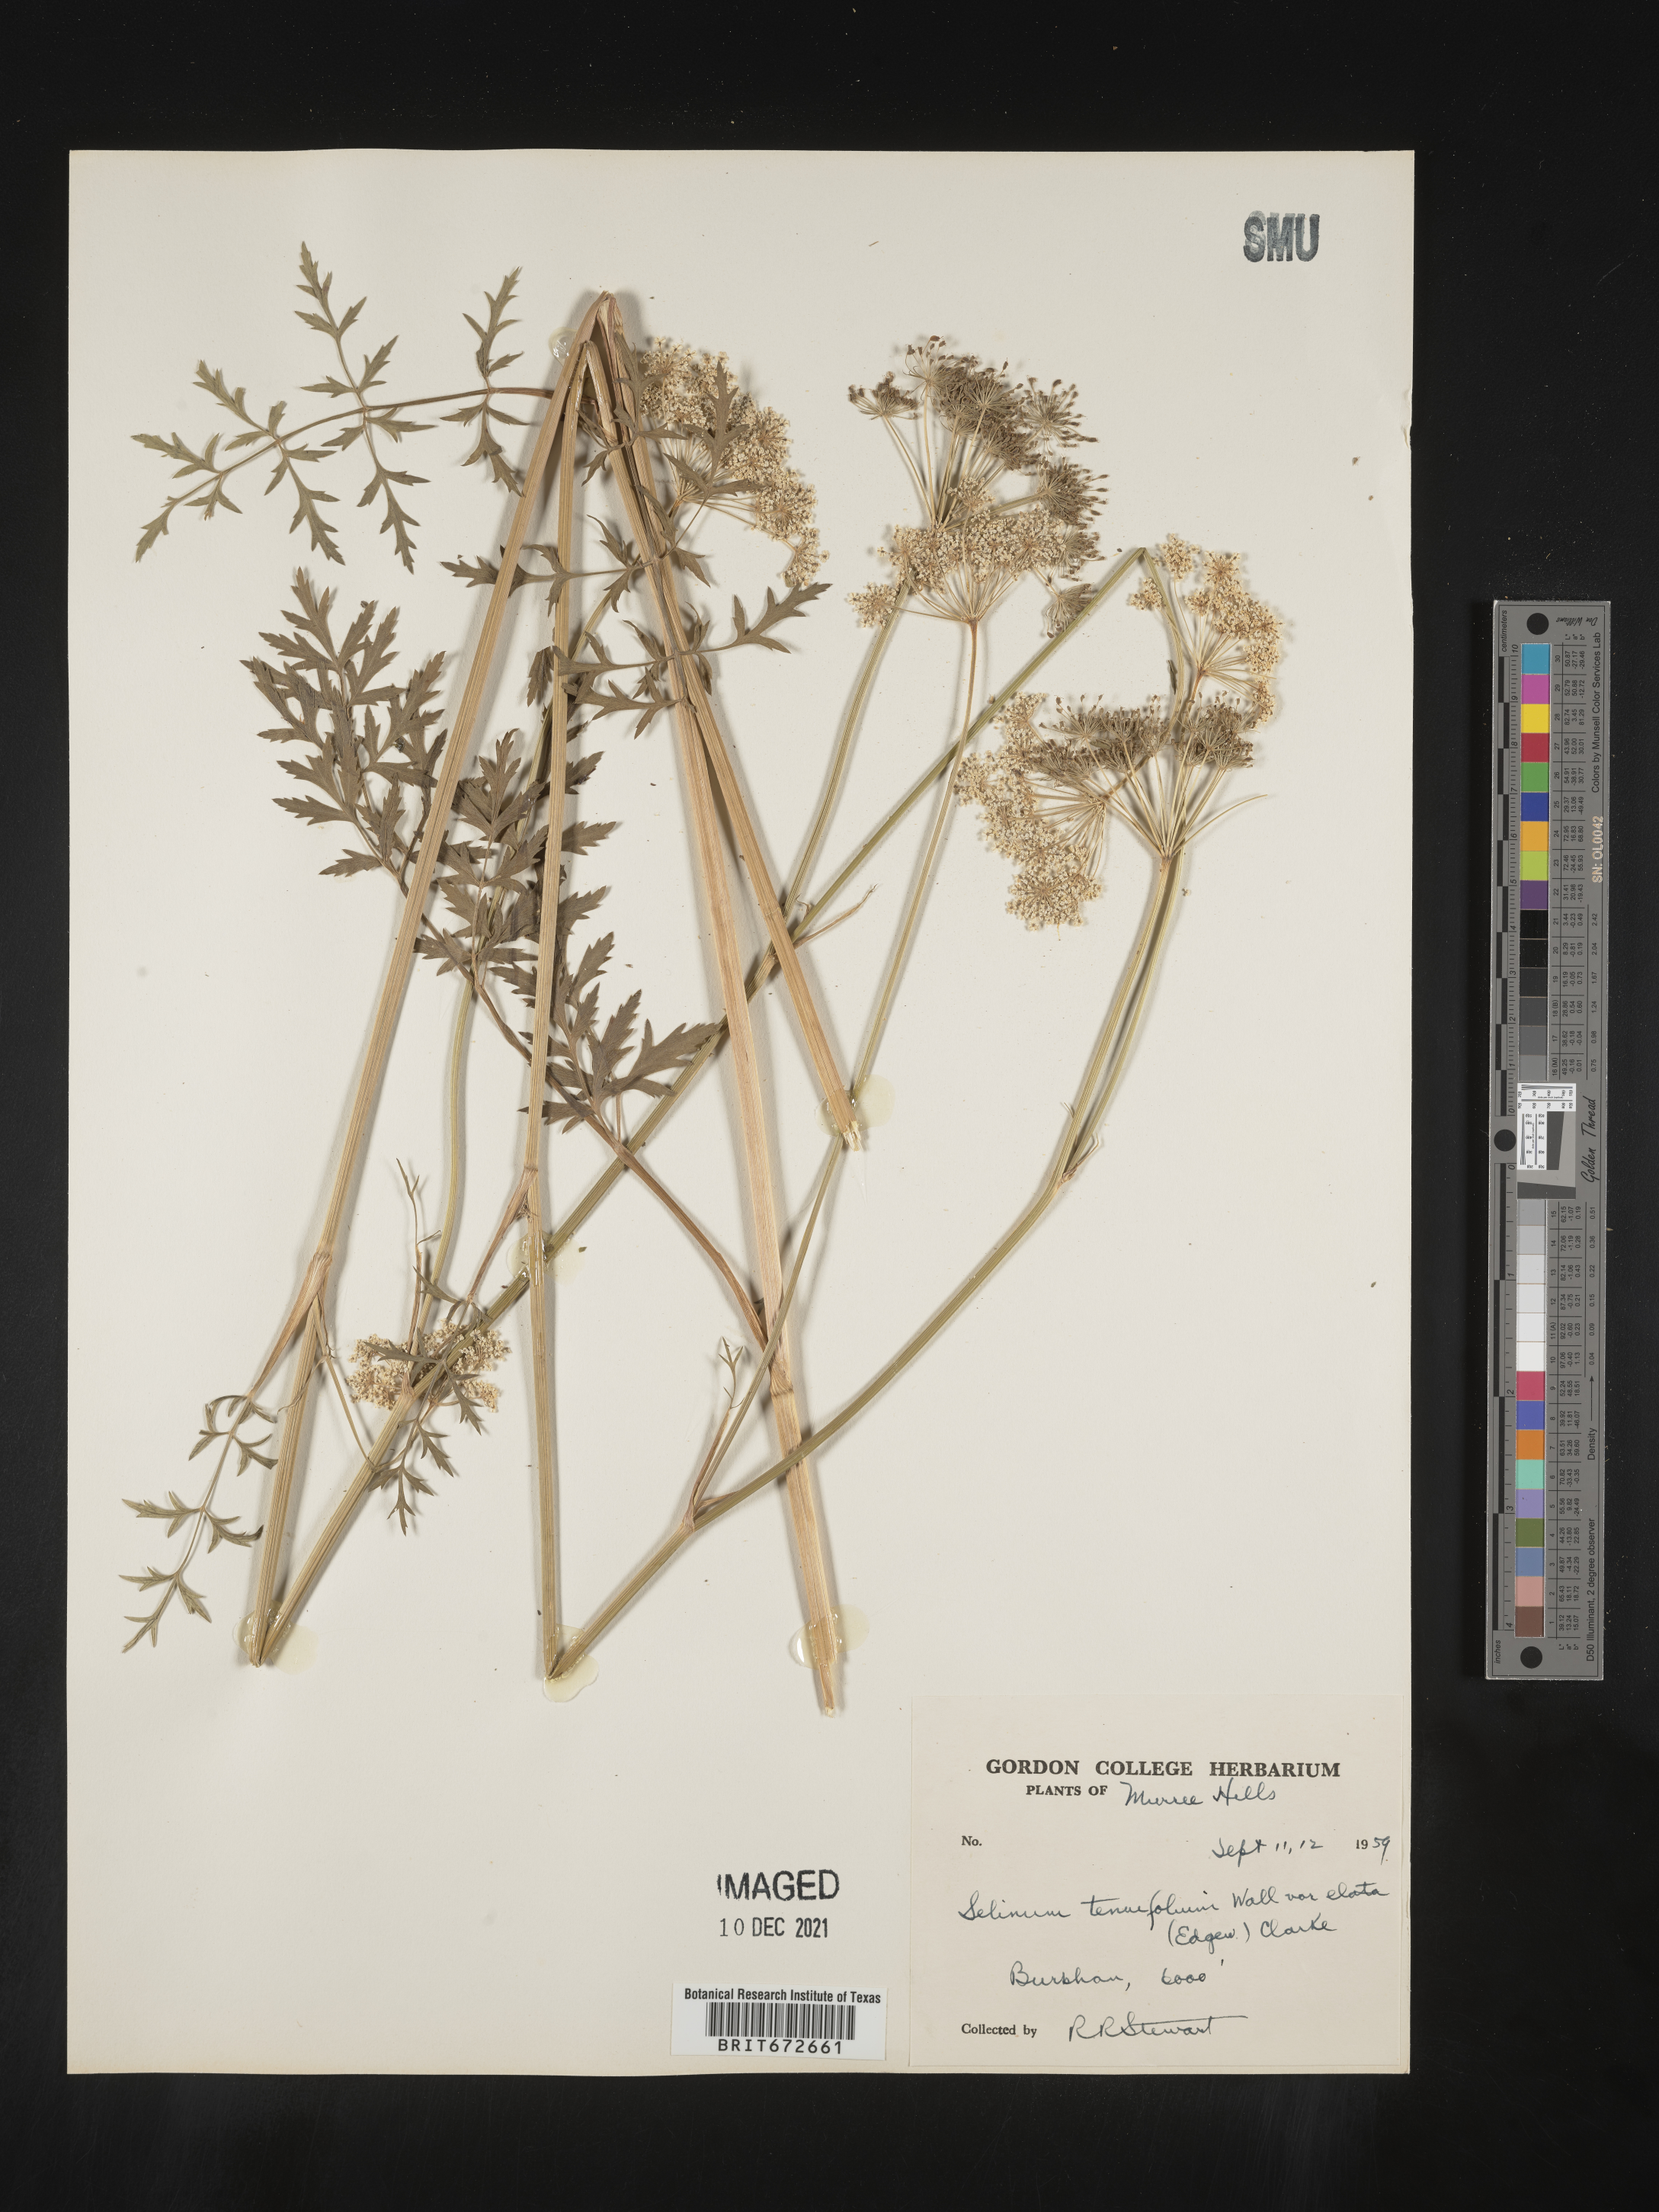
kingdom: Plantae
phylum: Tracheophyta
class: Magnoliopsida
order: Apiales
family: Apiaceae
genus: Selinum
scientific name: Selinum
